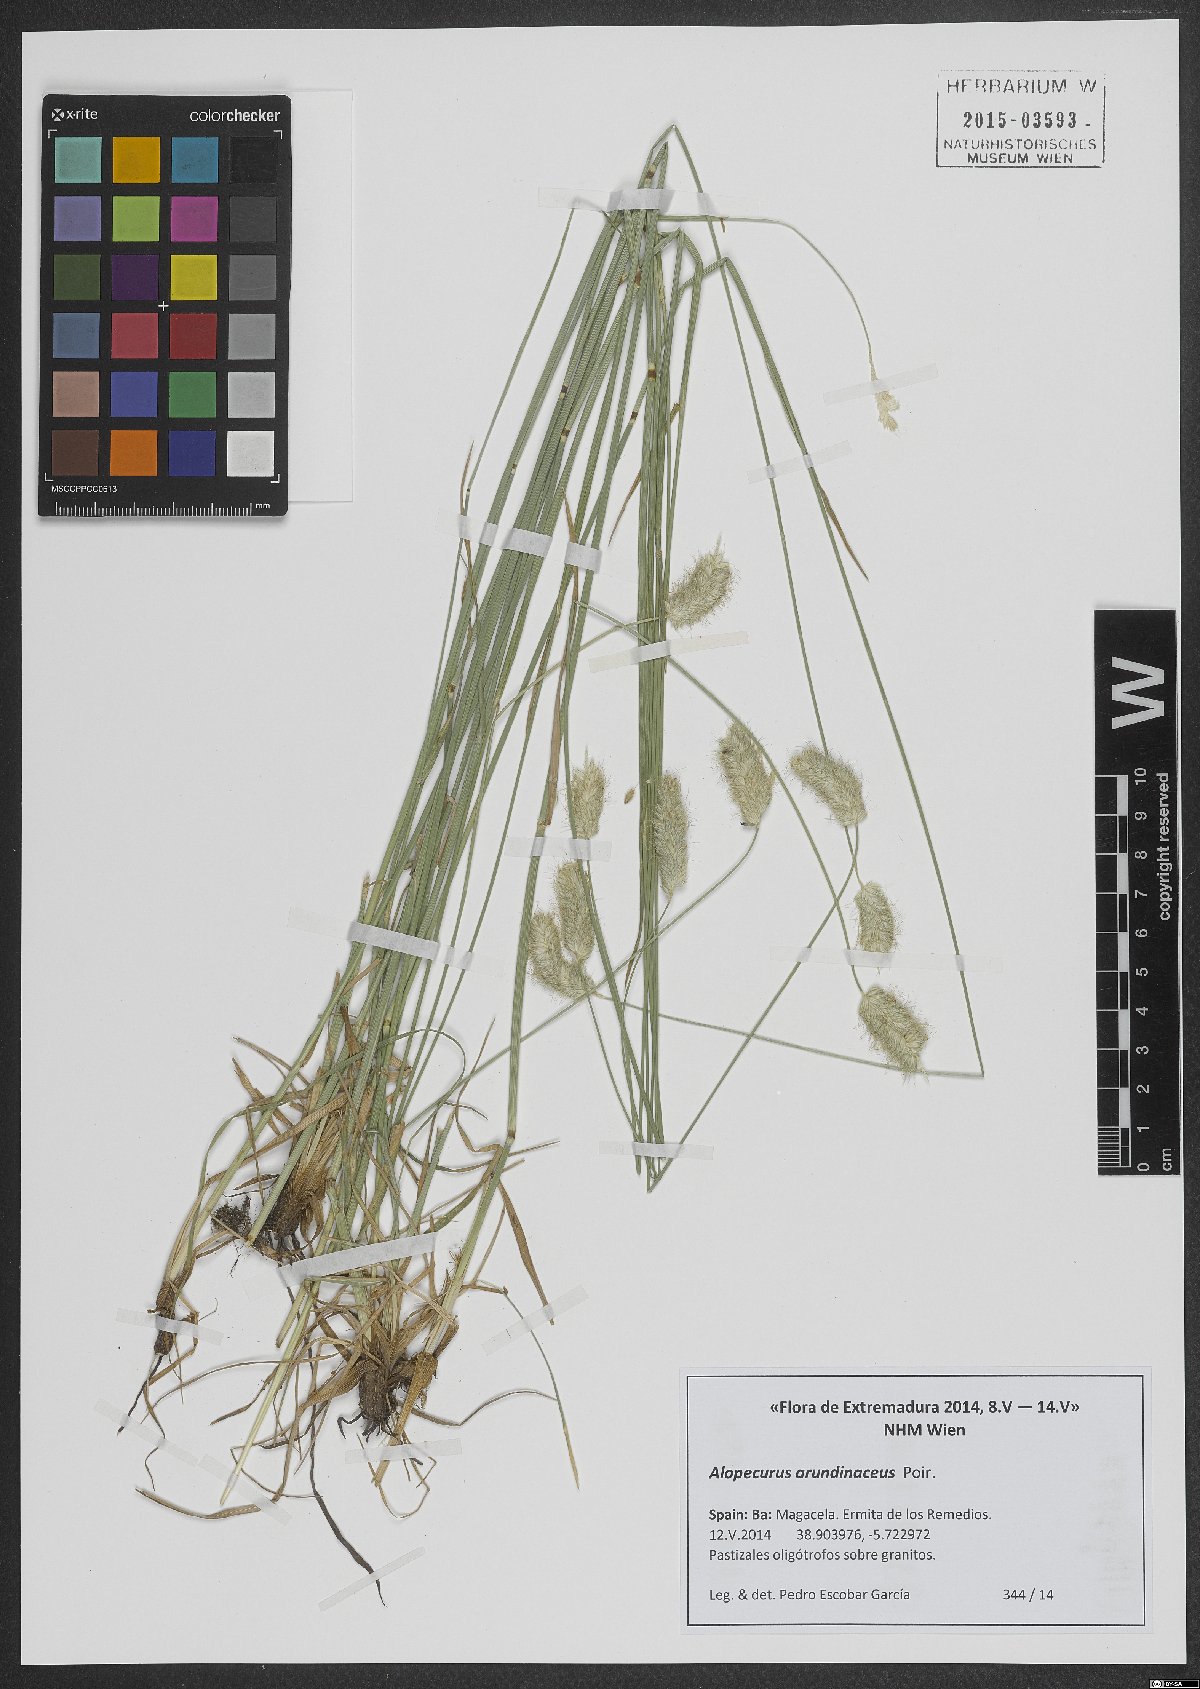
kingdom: Plantae
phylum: Tracheophyta
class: Liliopsida
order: Poales
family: Poaceae
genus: Alopecurus
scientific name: Alopecurus arundinaceus
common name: Creeping meadow foxtail
